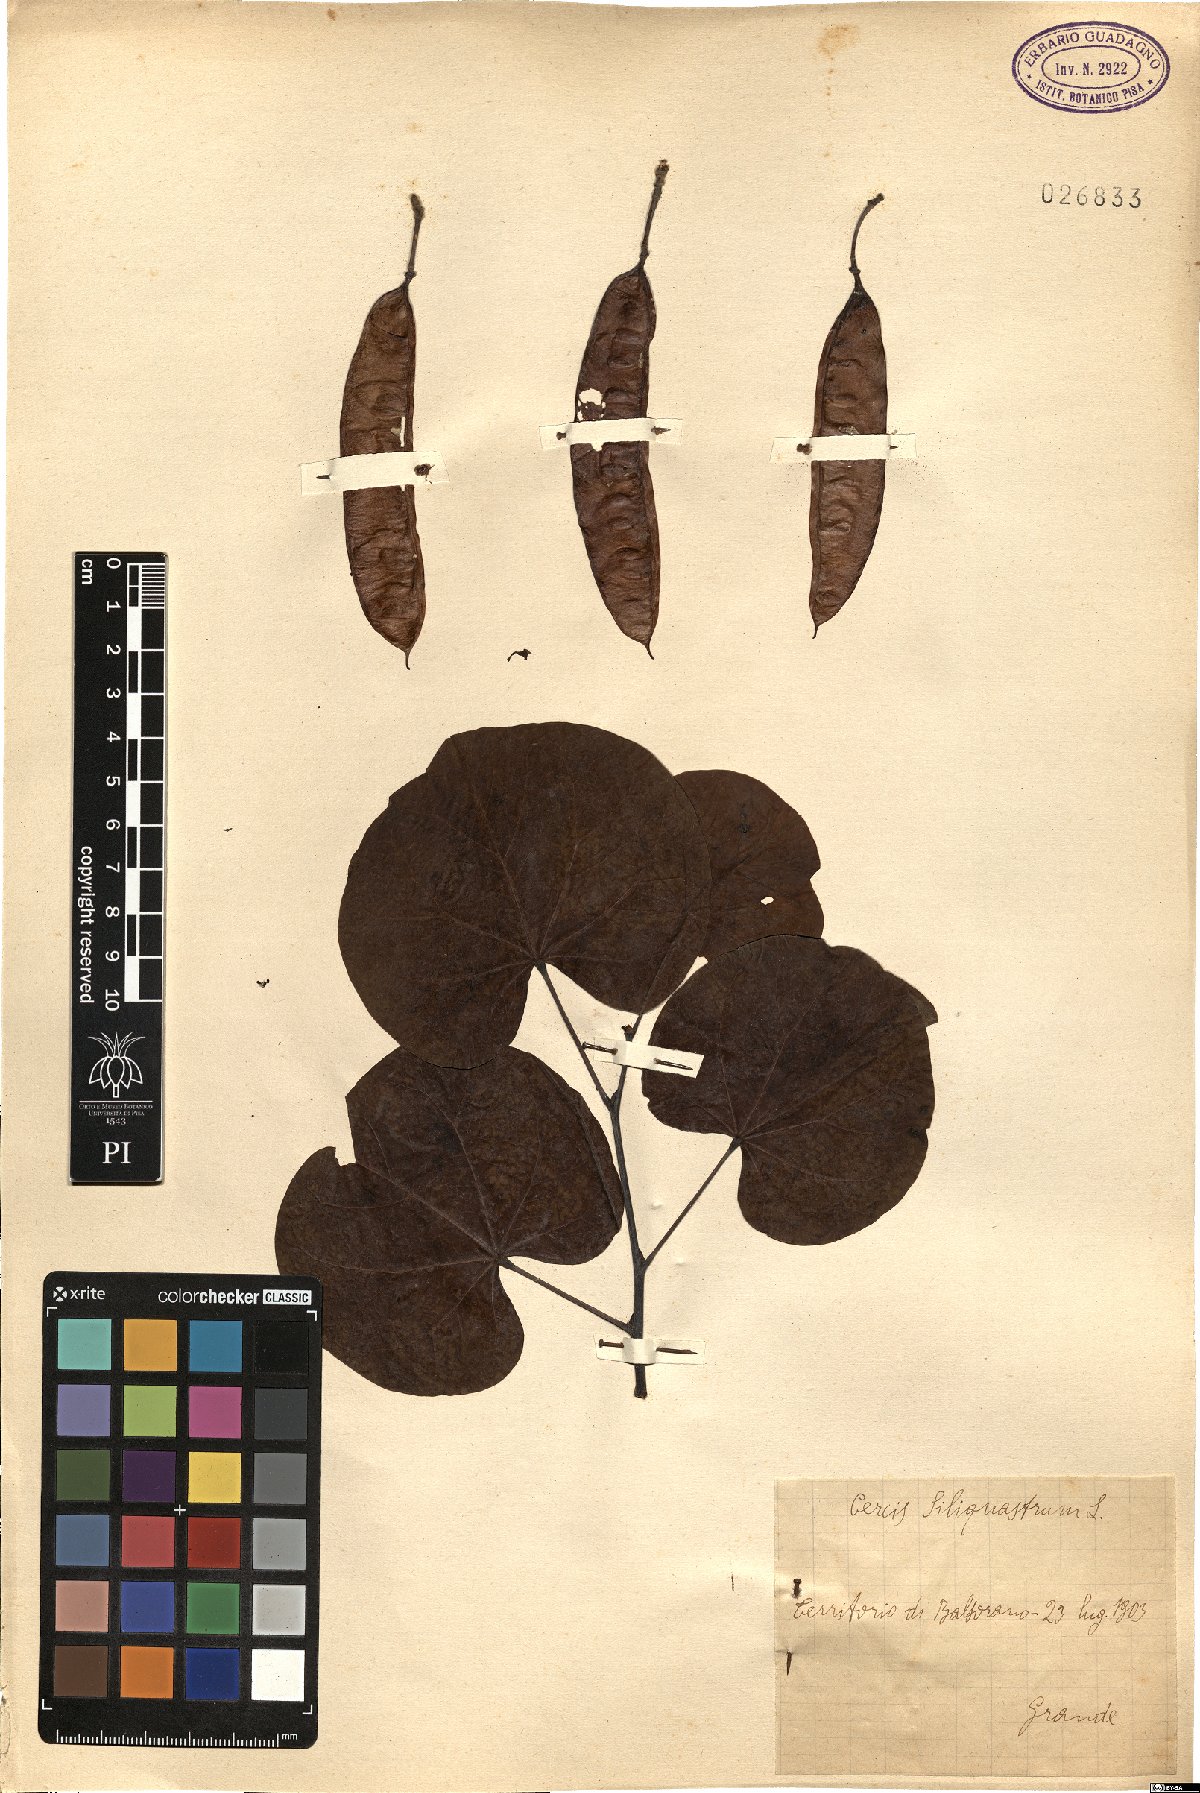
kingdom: Plantae
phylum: Tracheophyta
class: Magnoliopsida
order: Fabales
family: Fabaceae
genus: Cercis
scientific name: Cercis siliquastrum
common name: Judas tree
